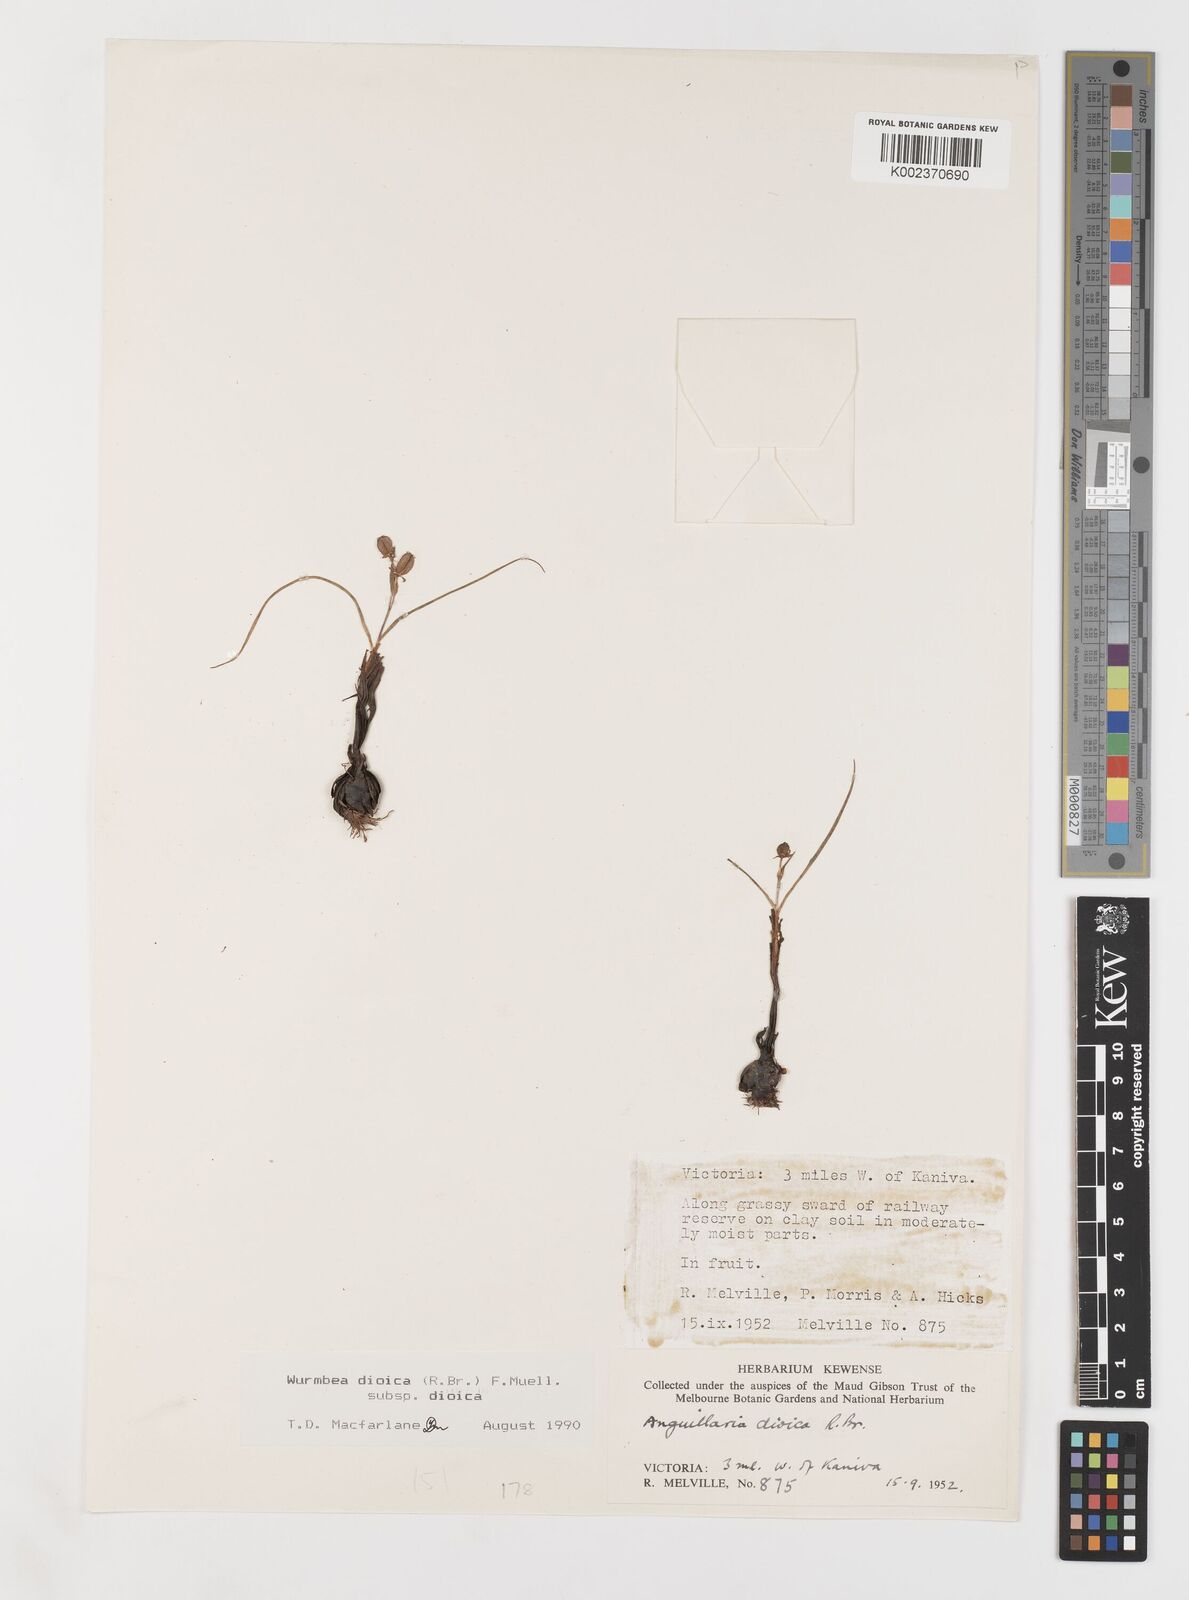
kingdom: Plantae
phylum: Tracheophyta
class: Liliopsida
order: Liliales
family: Colchicaceae
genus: Wurmbea
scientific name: Wurmbea dioica
